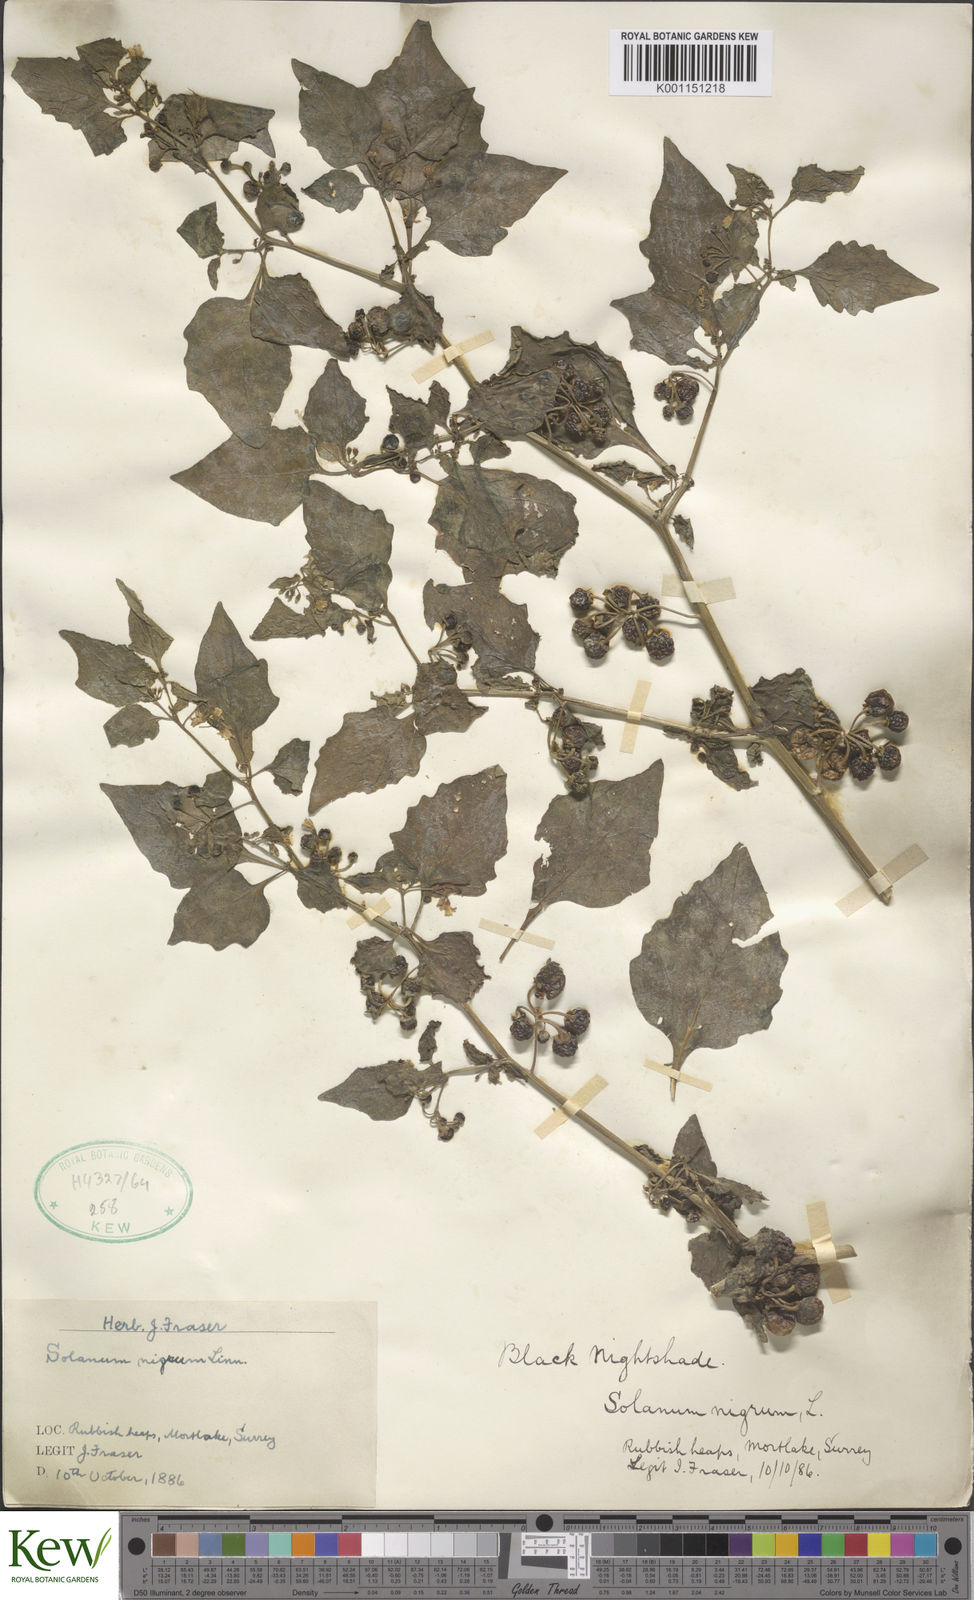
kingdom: Plantae
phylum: Tracheophyta
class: Magnoliopsida
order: Solanales
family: Solanaceae
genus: Solanum
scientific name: Solanum nigrum
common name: Black nightshade
